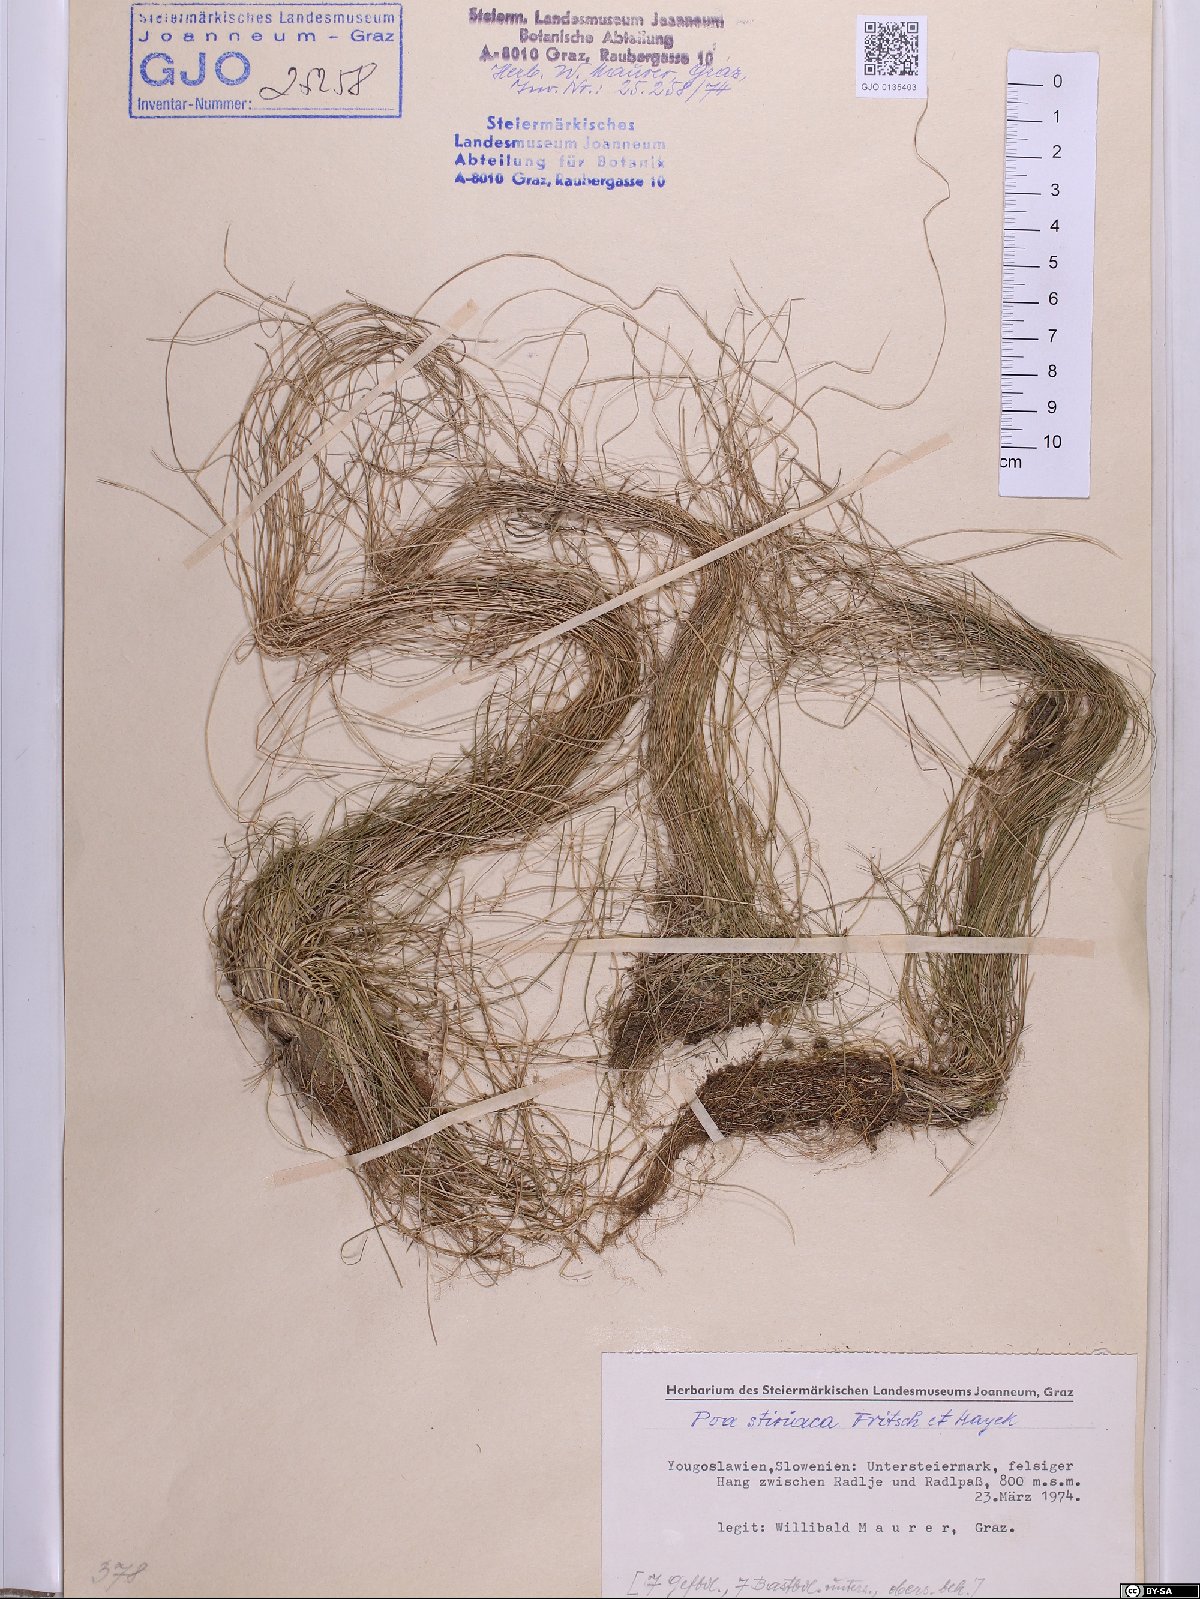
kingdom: Plantae
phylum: Tracheophyta
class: Liliopsida
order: Poales
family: Poaceae
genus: Poa
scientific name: Poa stiriaca
